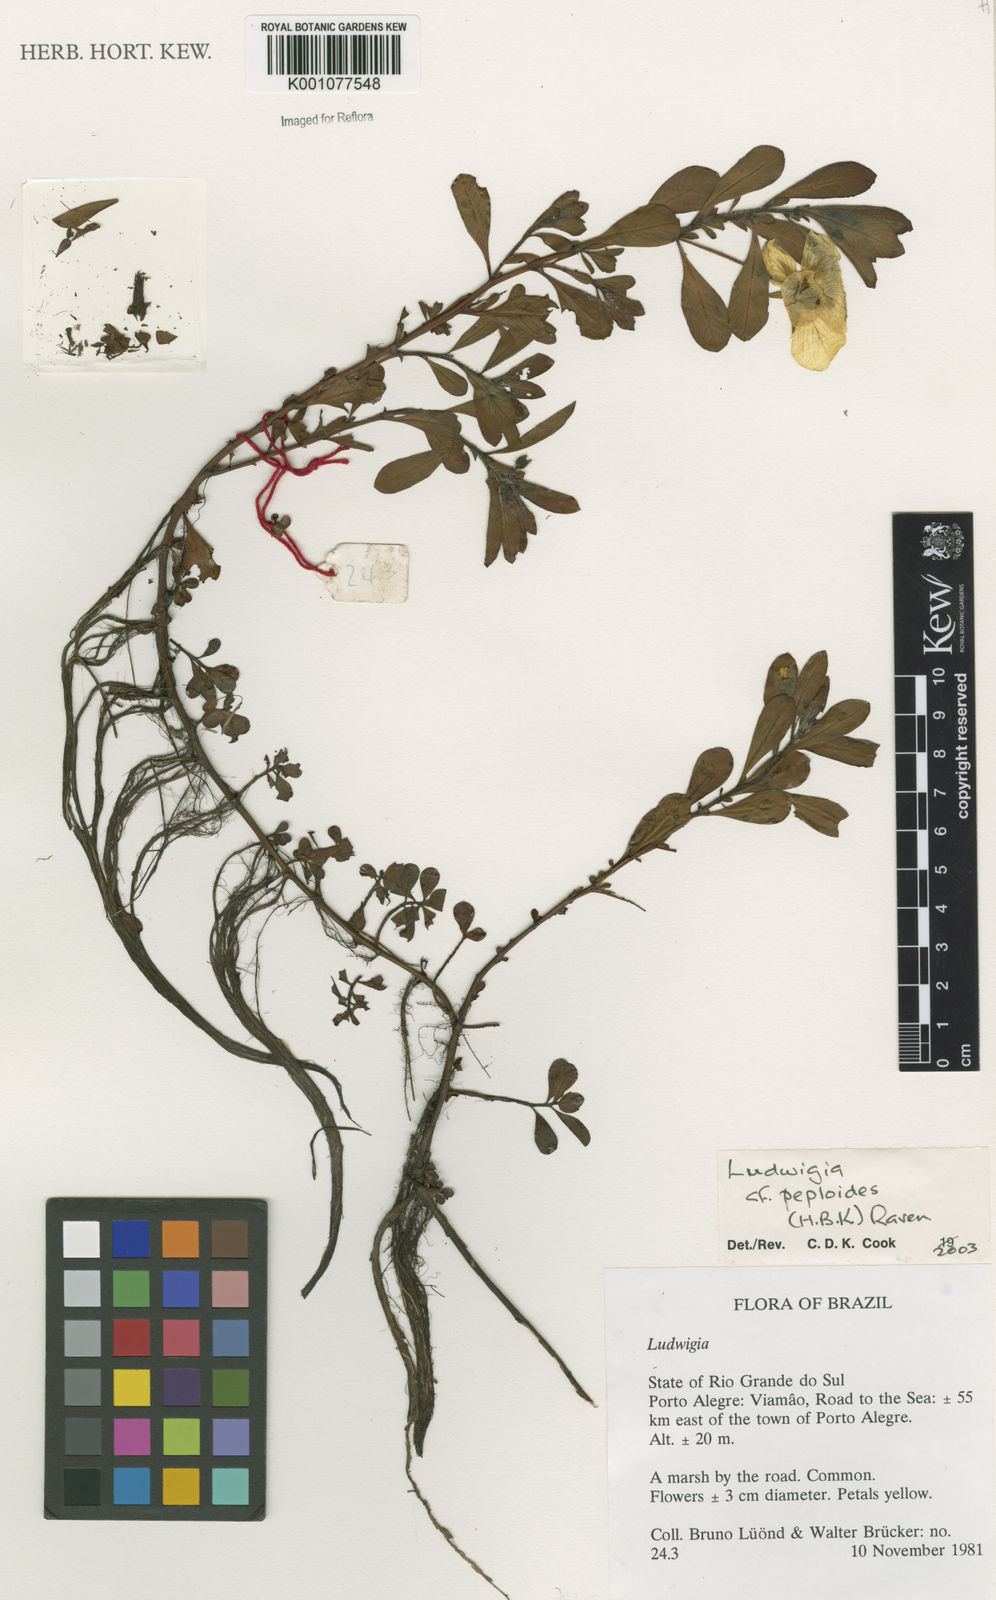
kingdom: Plantae
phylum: Tracheophyta
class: Magnoliopsida
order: Myrtales
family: Onagraceae
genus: Ludwigia
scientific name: Ludwigia peploides
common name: Floating primrose-willow
